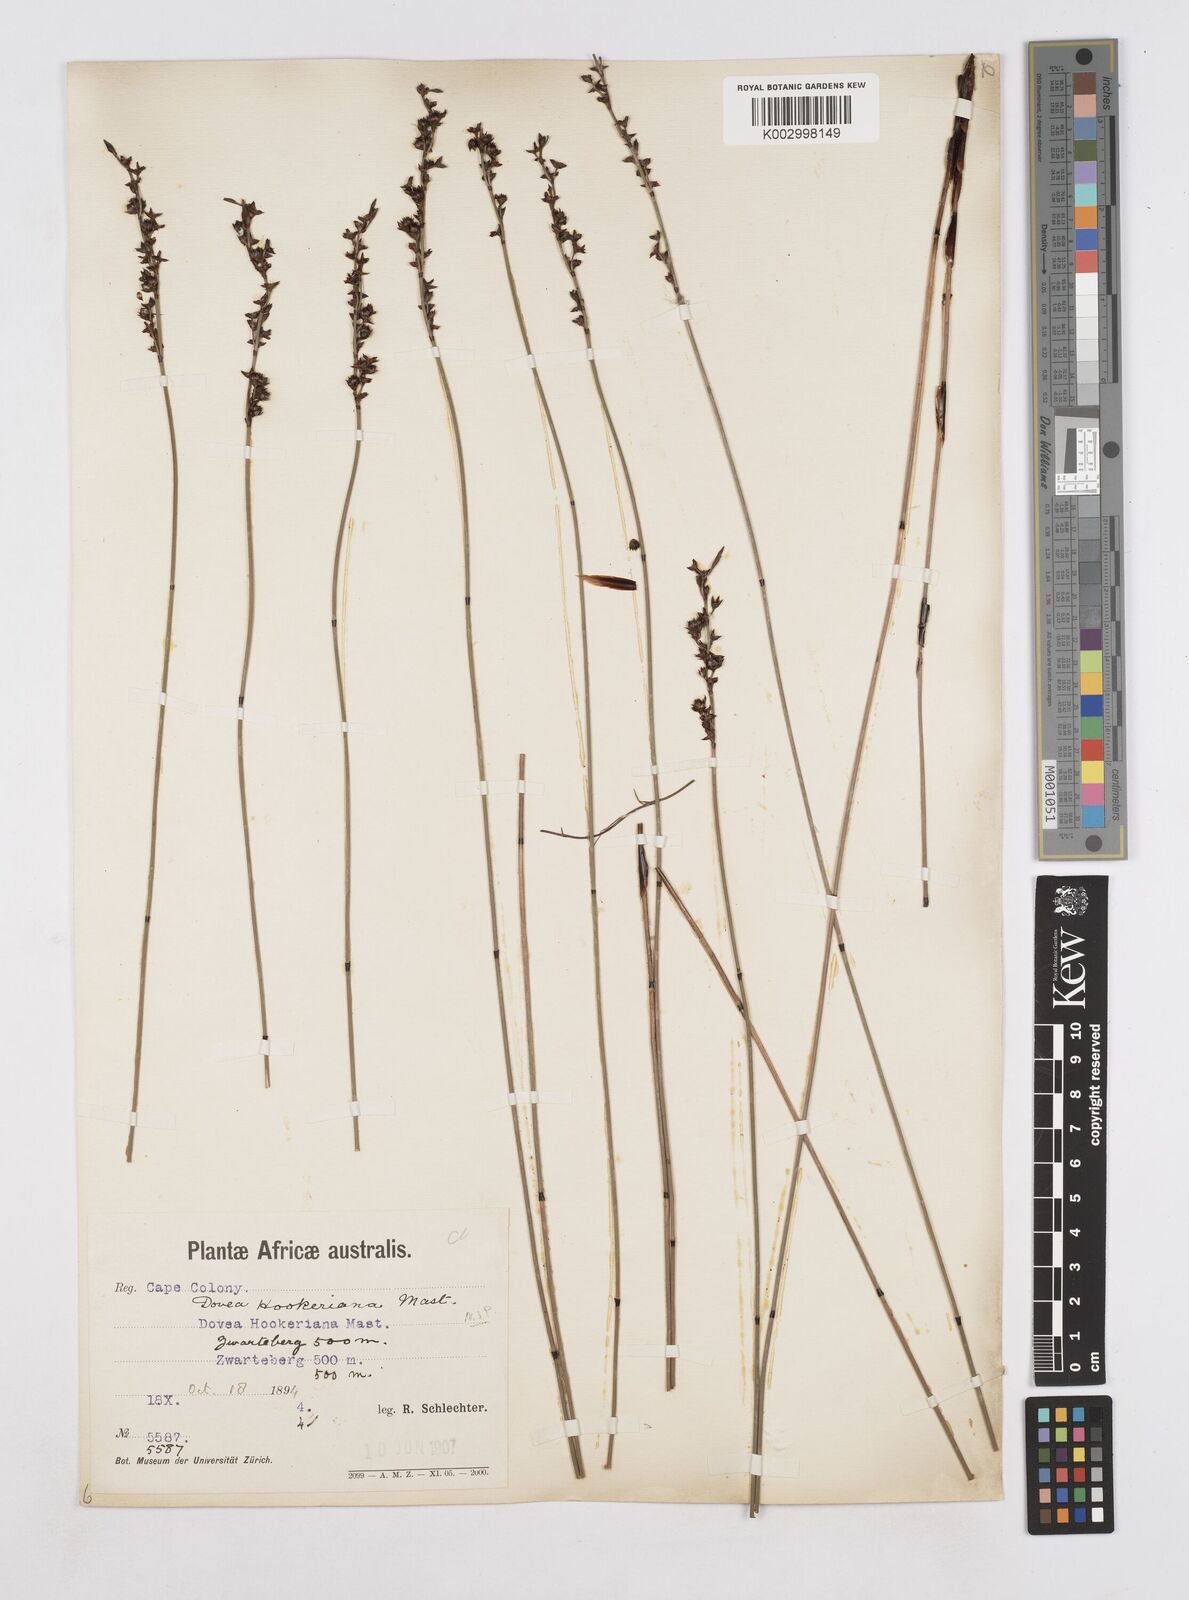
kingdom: Plantae
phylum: Tracheophyta
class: Liliopsida
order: Poales
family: Restionaceae
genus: Elegia
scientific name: Elegia hookeriana
